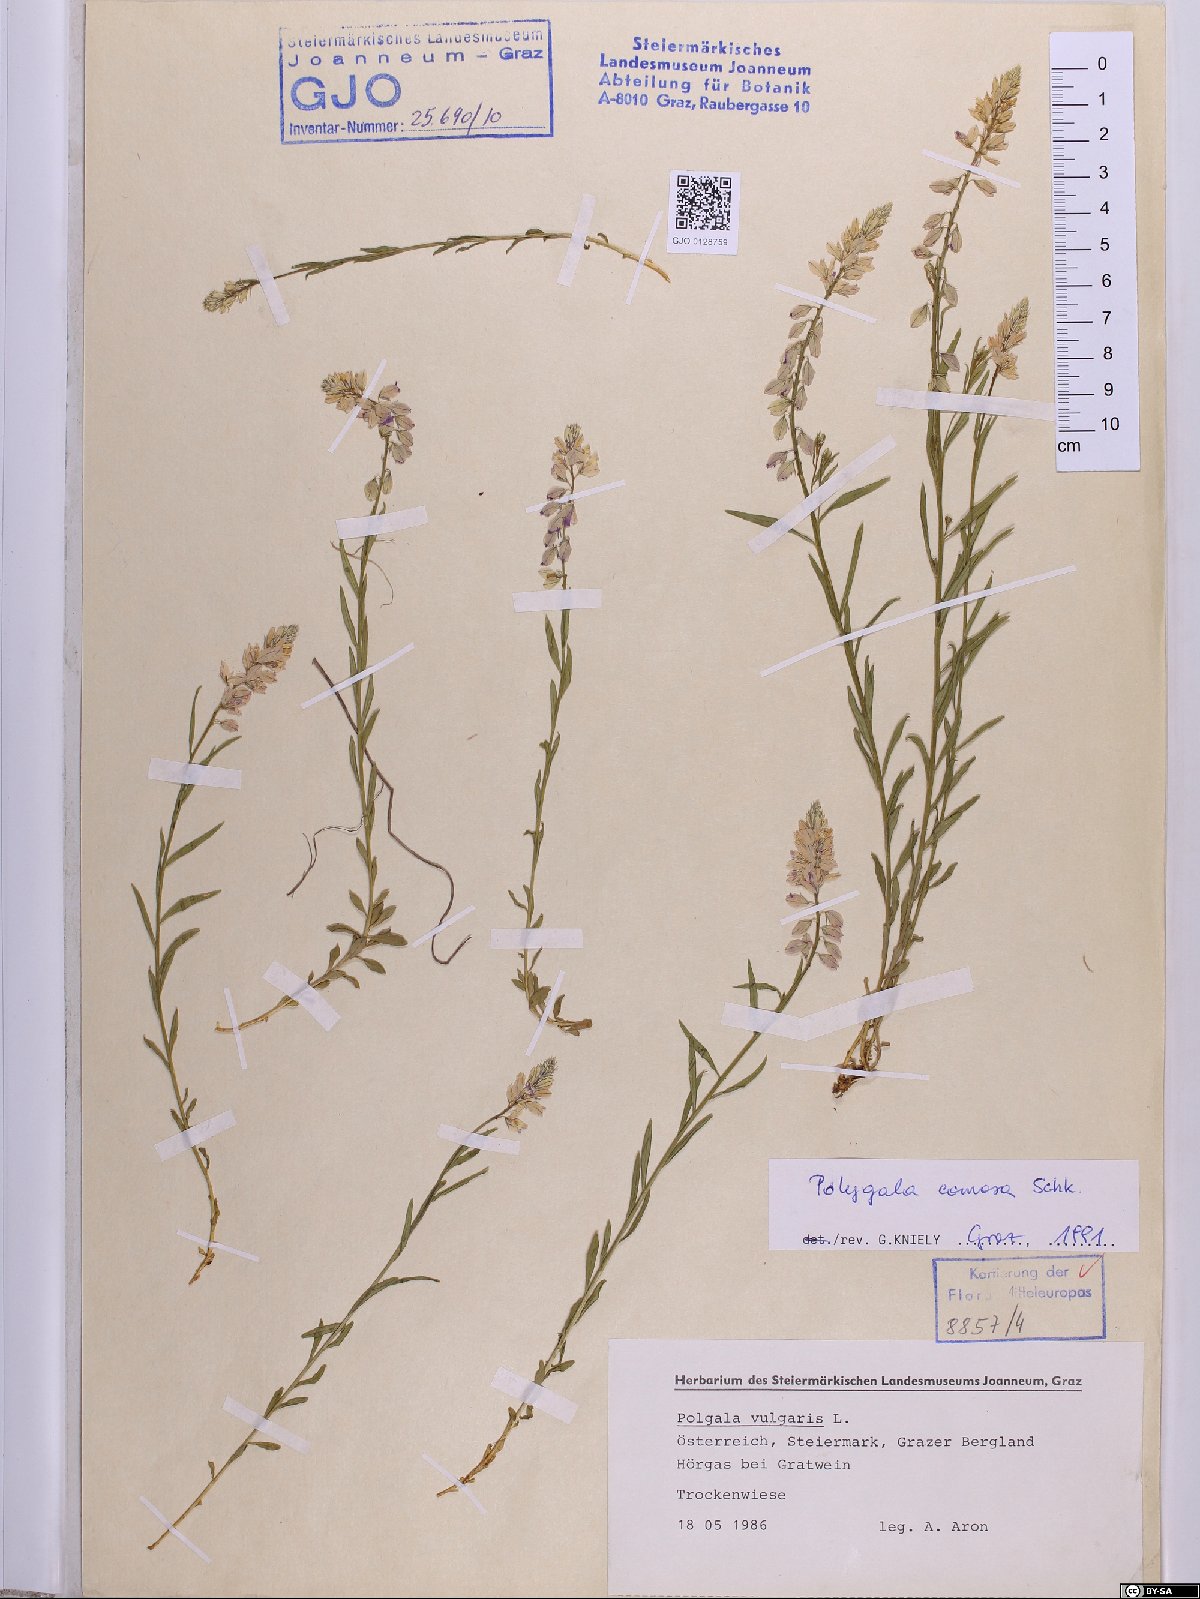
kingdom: Plantae
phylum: Tracheophyta
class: Magnoliopsida
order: Fabales
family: Polygalaceae
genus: Polygala
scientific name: Polygala comosa
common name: Tufted milkwort
